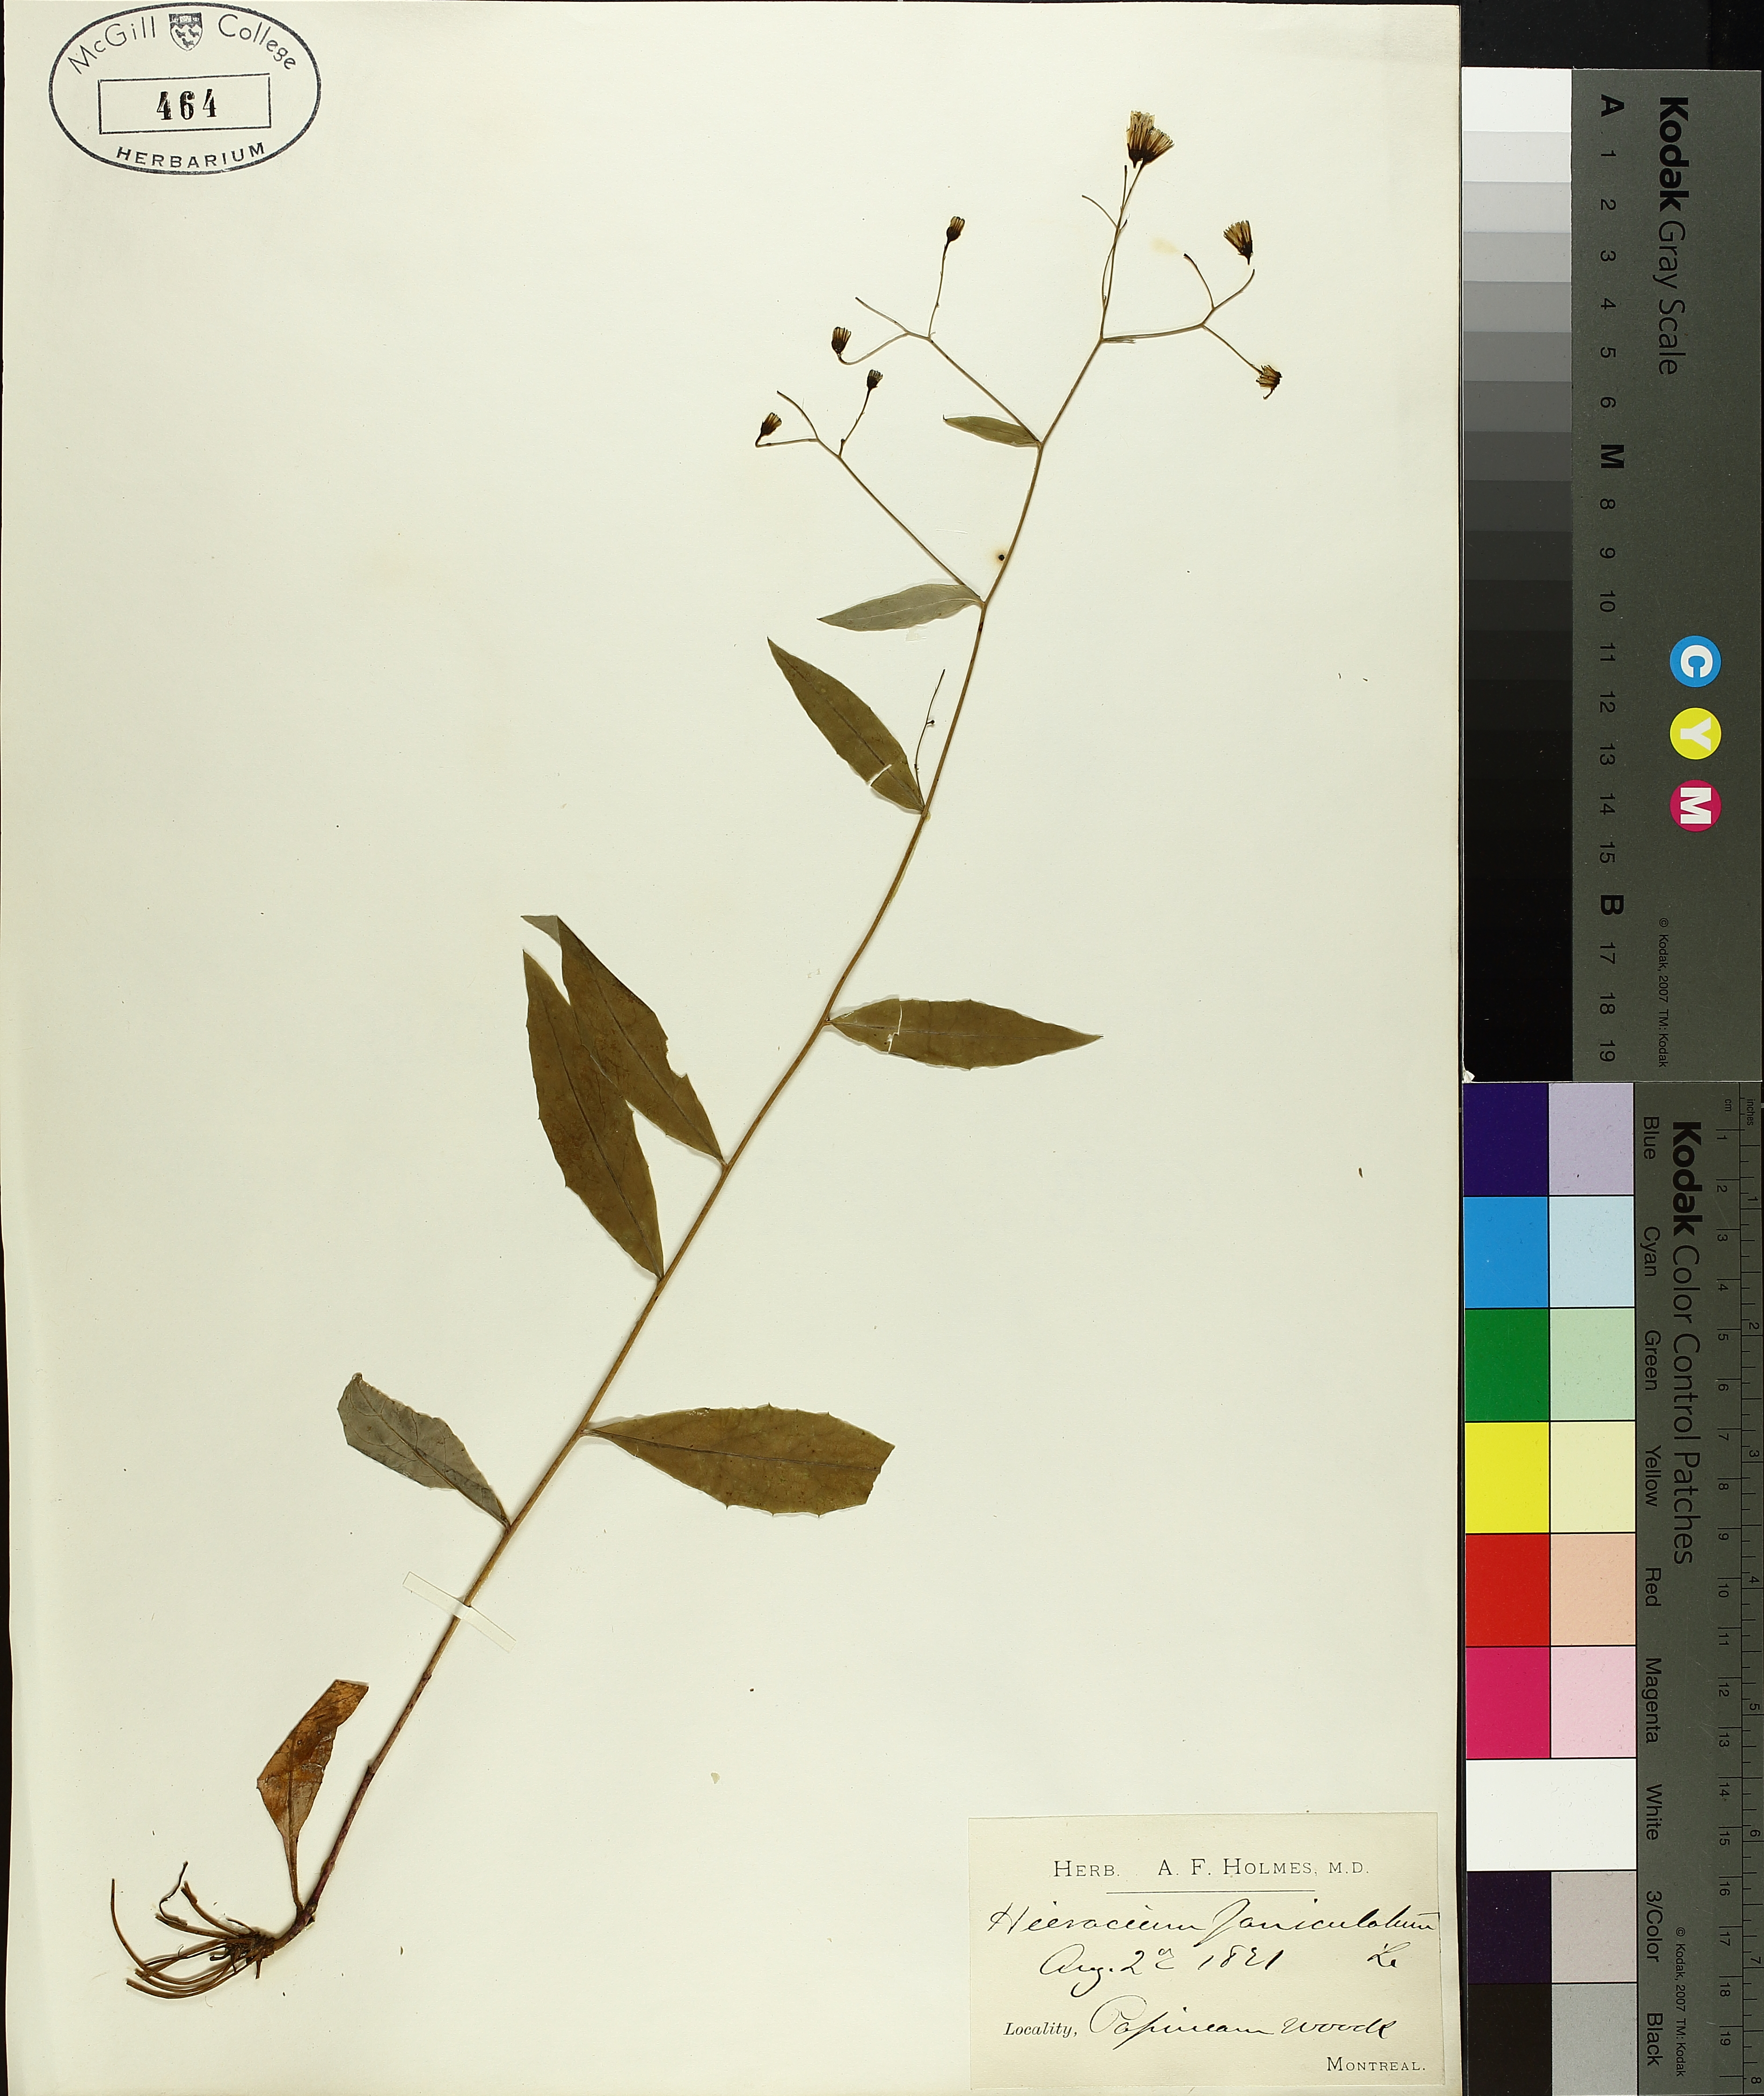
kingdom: Plantae
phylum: Tracheophyta
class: Magnoliopsida
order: Asterales
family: Asteraceae
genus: Hieracium
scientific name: Hieracium paniculatum
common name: Allegheny hawkweed
